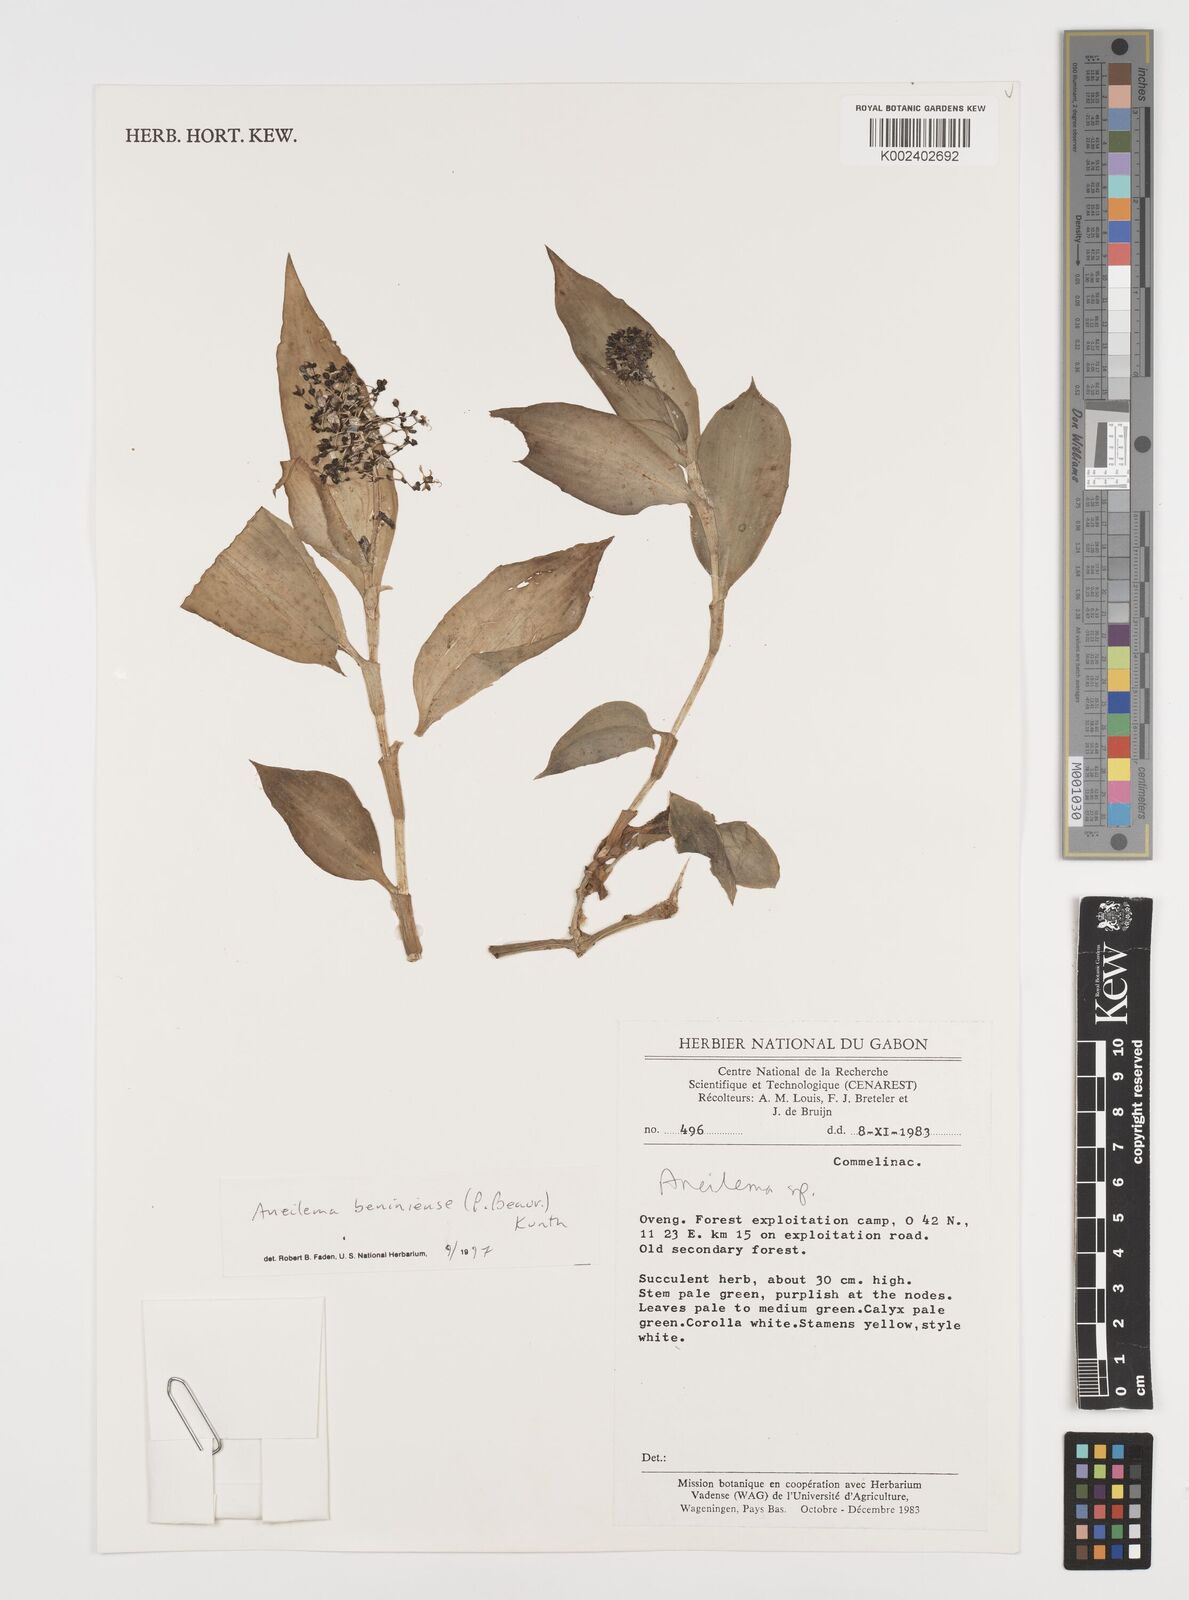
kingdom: Plantae
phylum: Tracheophyta
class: Liliopsida
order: Commelinales
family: Commelinaceae
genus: Aneilema
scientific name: Aneilema beniniense
